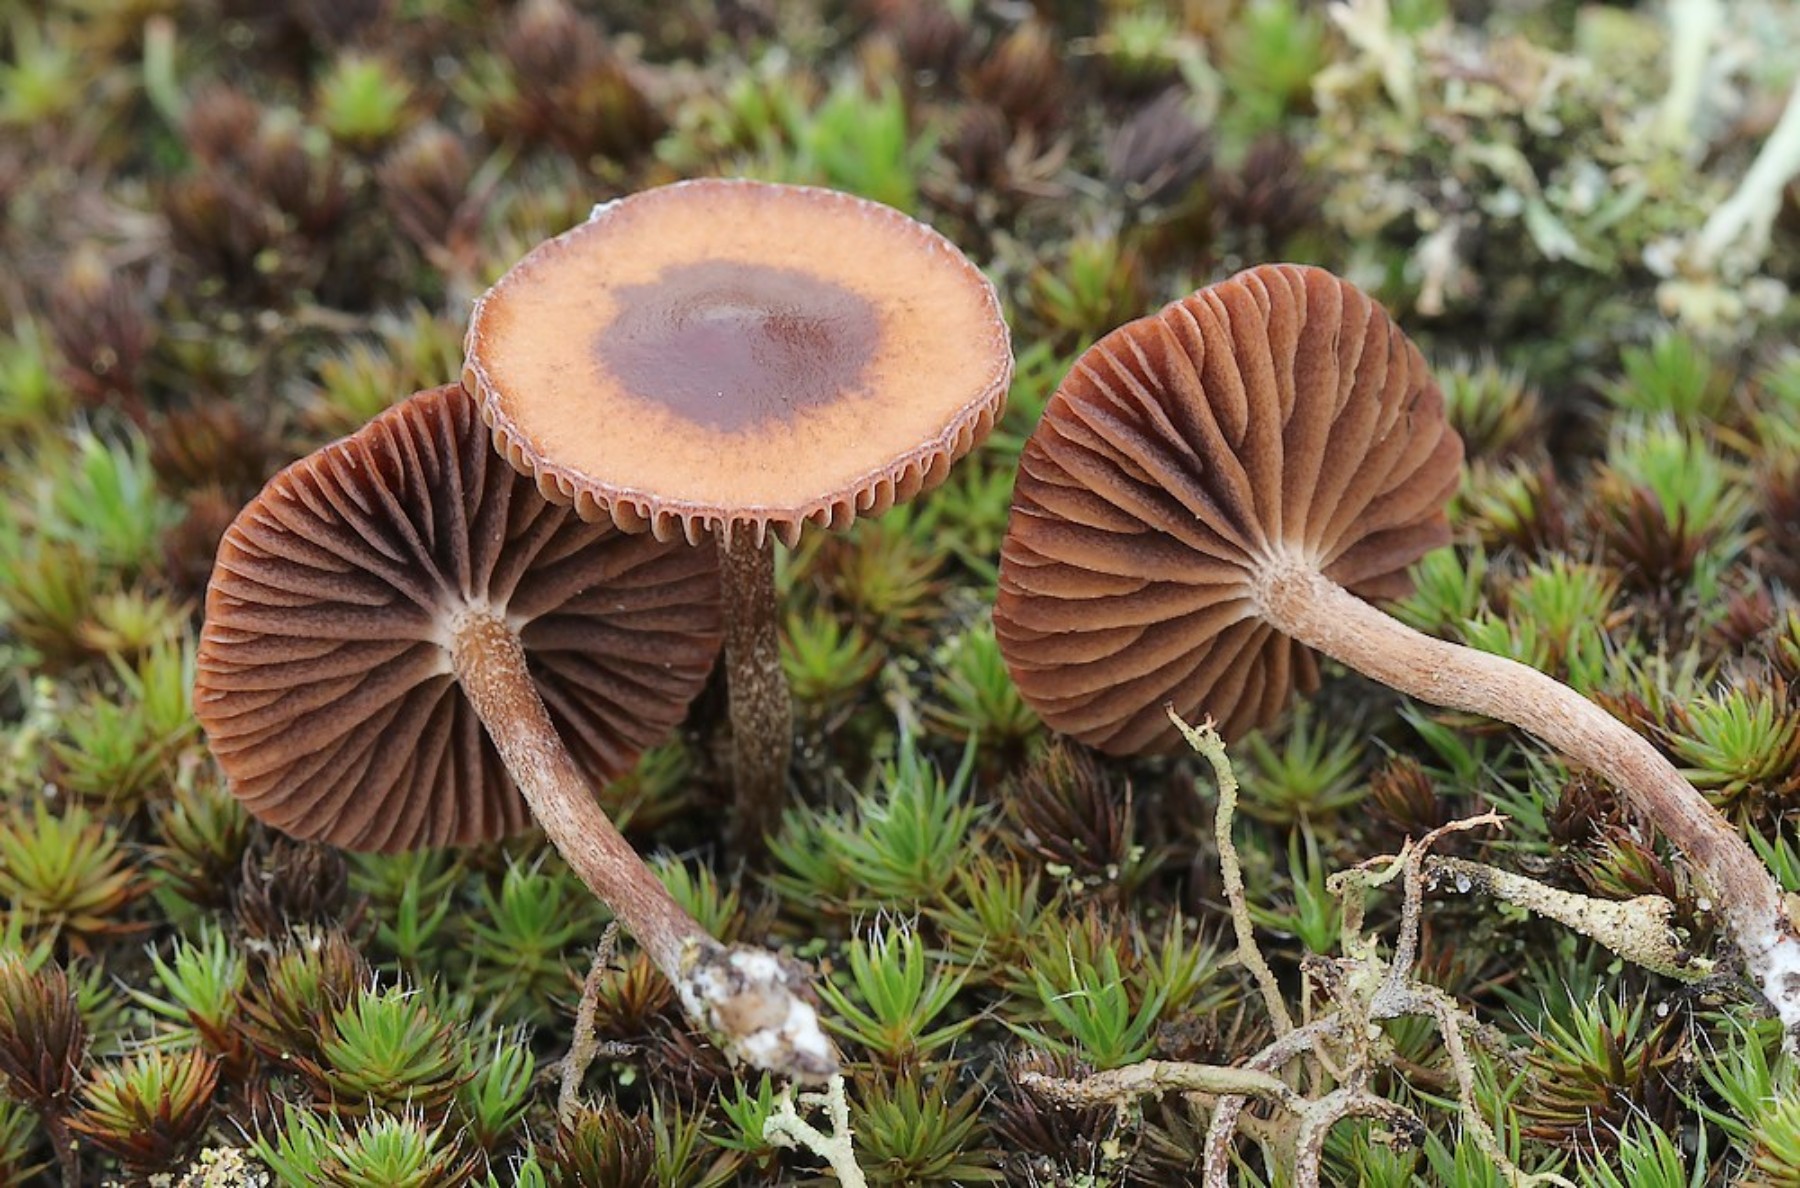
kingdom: Fungi
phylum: Basidiomycota
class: Agaricomycetes
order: Agaricales
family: Strophariaceae
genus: Deconica
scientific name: Deconica montana
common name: rødbrun stråhat
